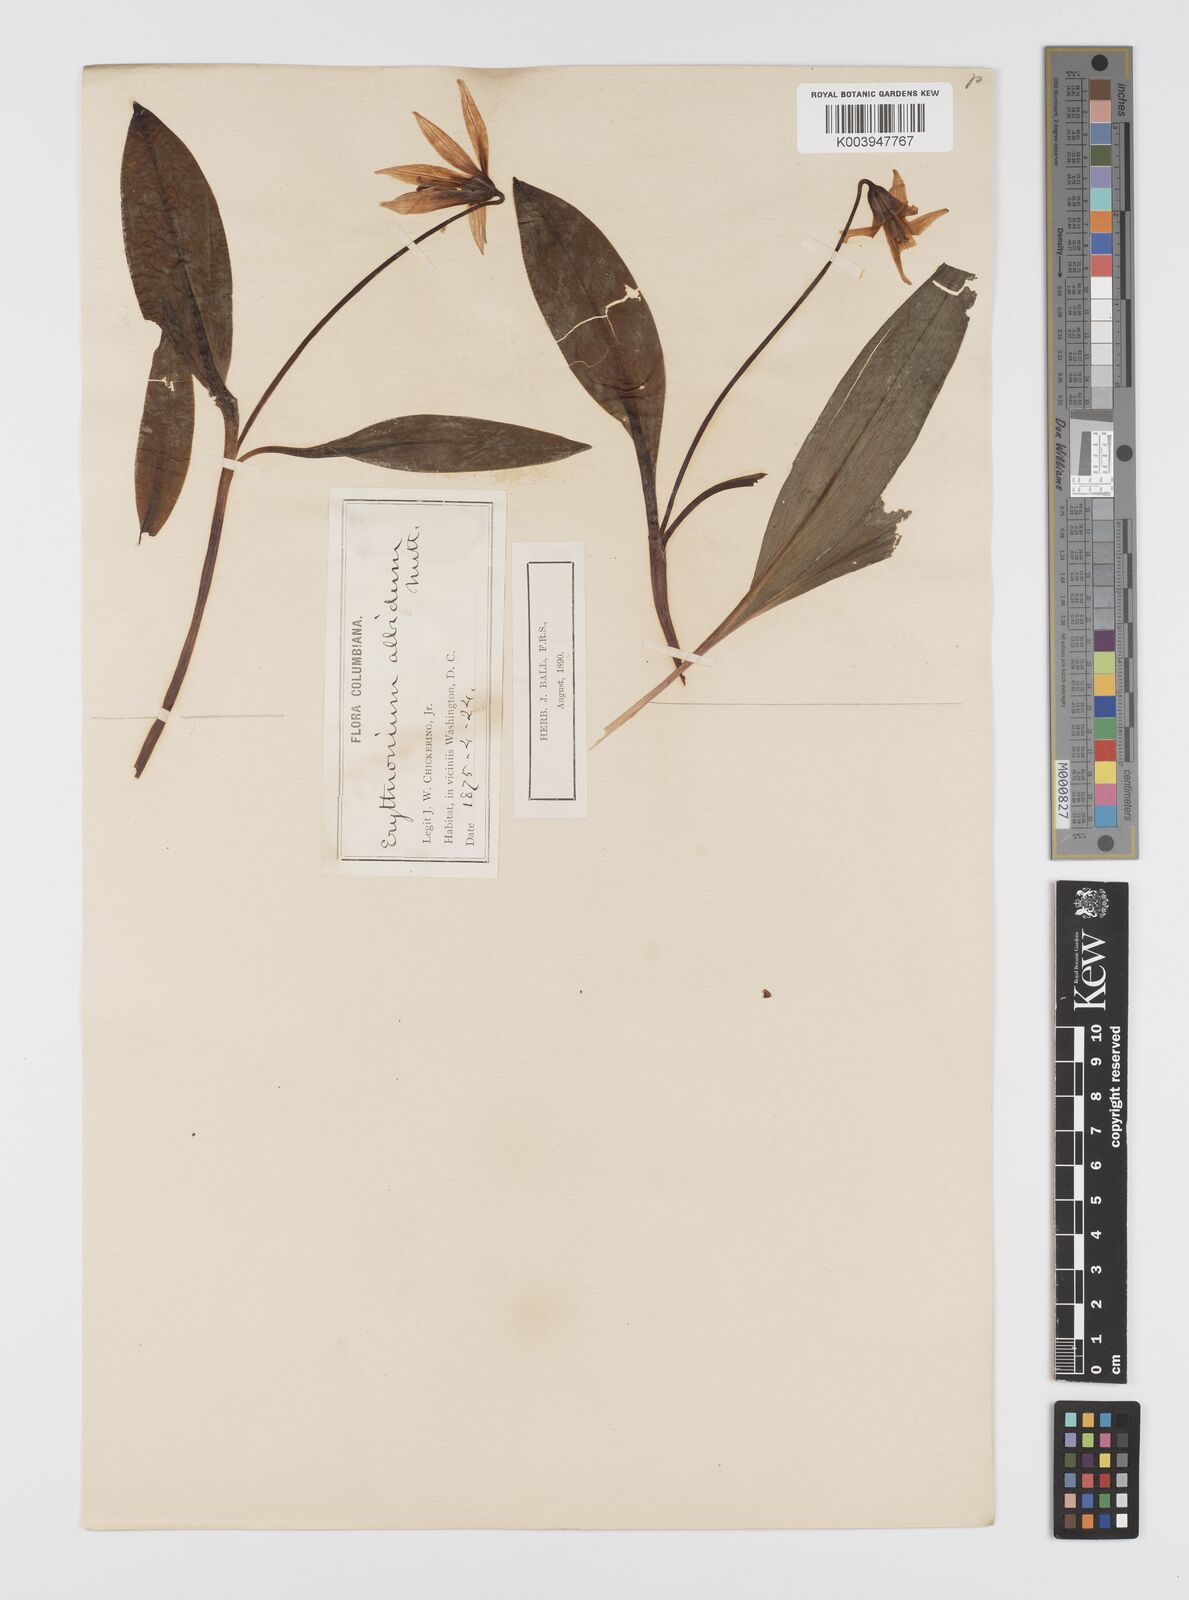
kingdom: Plantae
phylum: Tracheophyta
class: Liliopsida
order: Liliales
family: Liliaceae
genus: Erythronium
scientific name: Erythronium albidum
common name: White trout-lily
